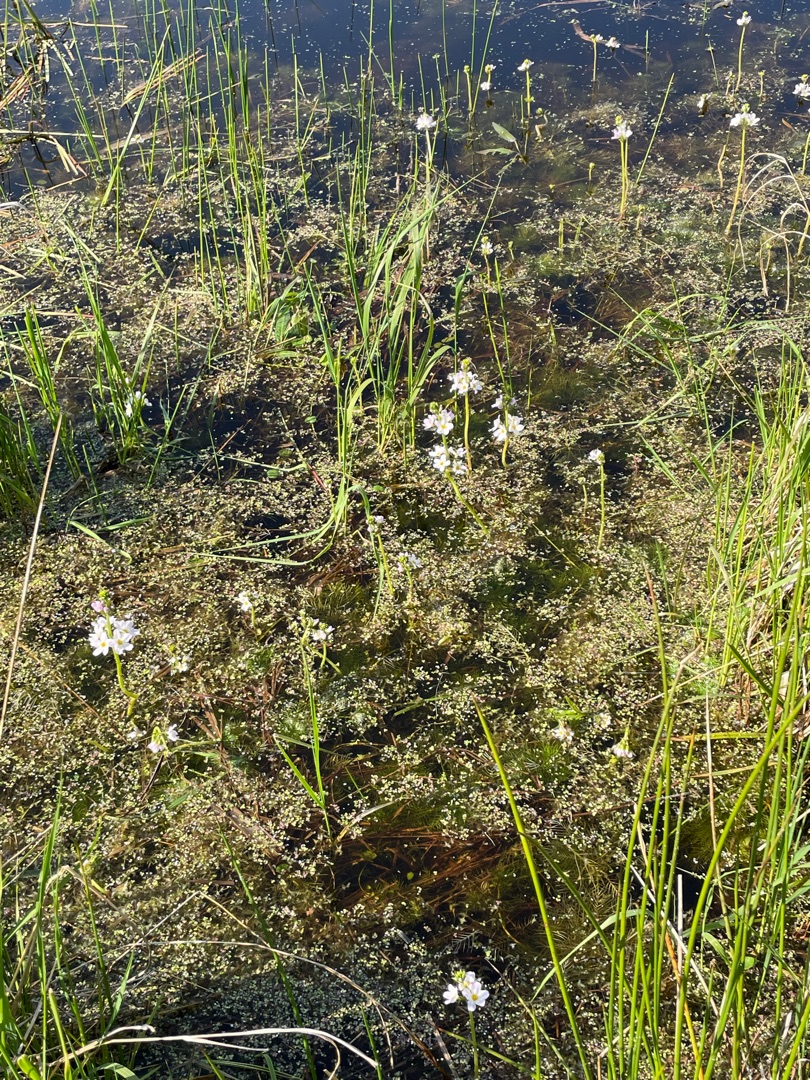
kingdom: Plantae
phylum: Tracheophyta
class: Magnoliopsida
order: Ericales
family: Primulaceae
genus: Hottonia
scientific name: Hottonia palustris
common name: Vandrøllike
